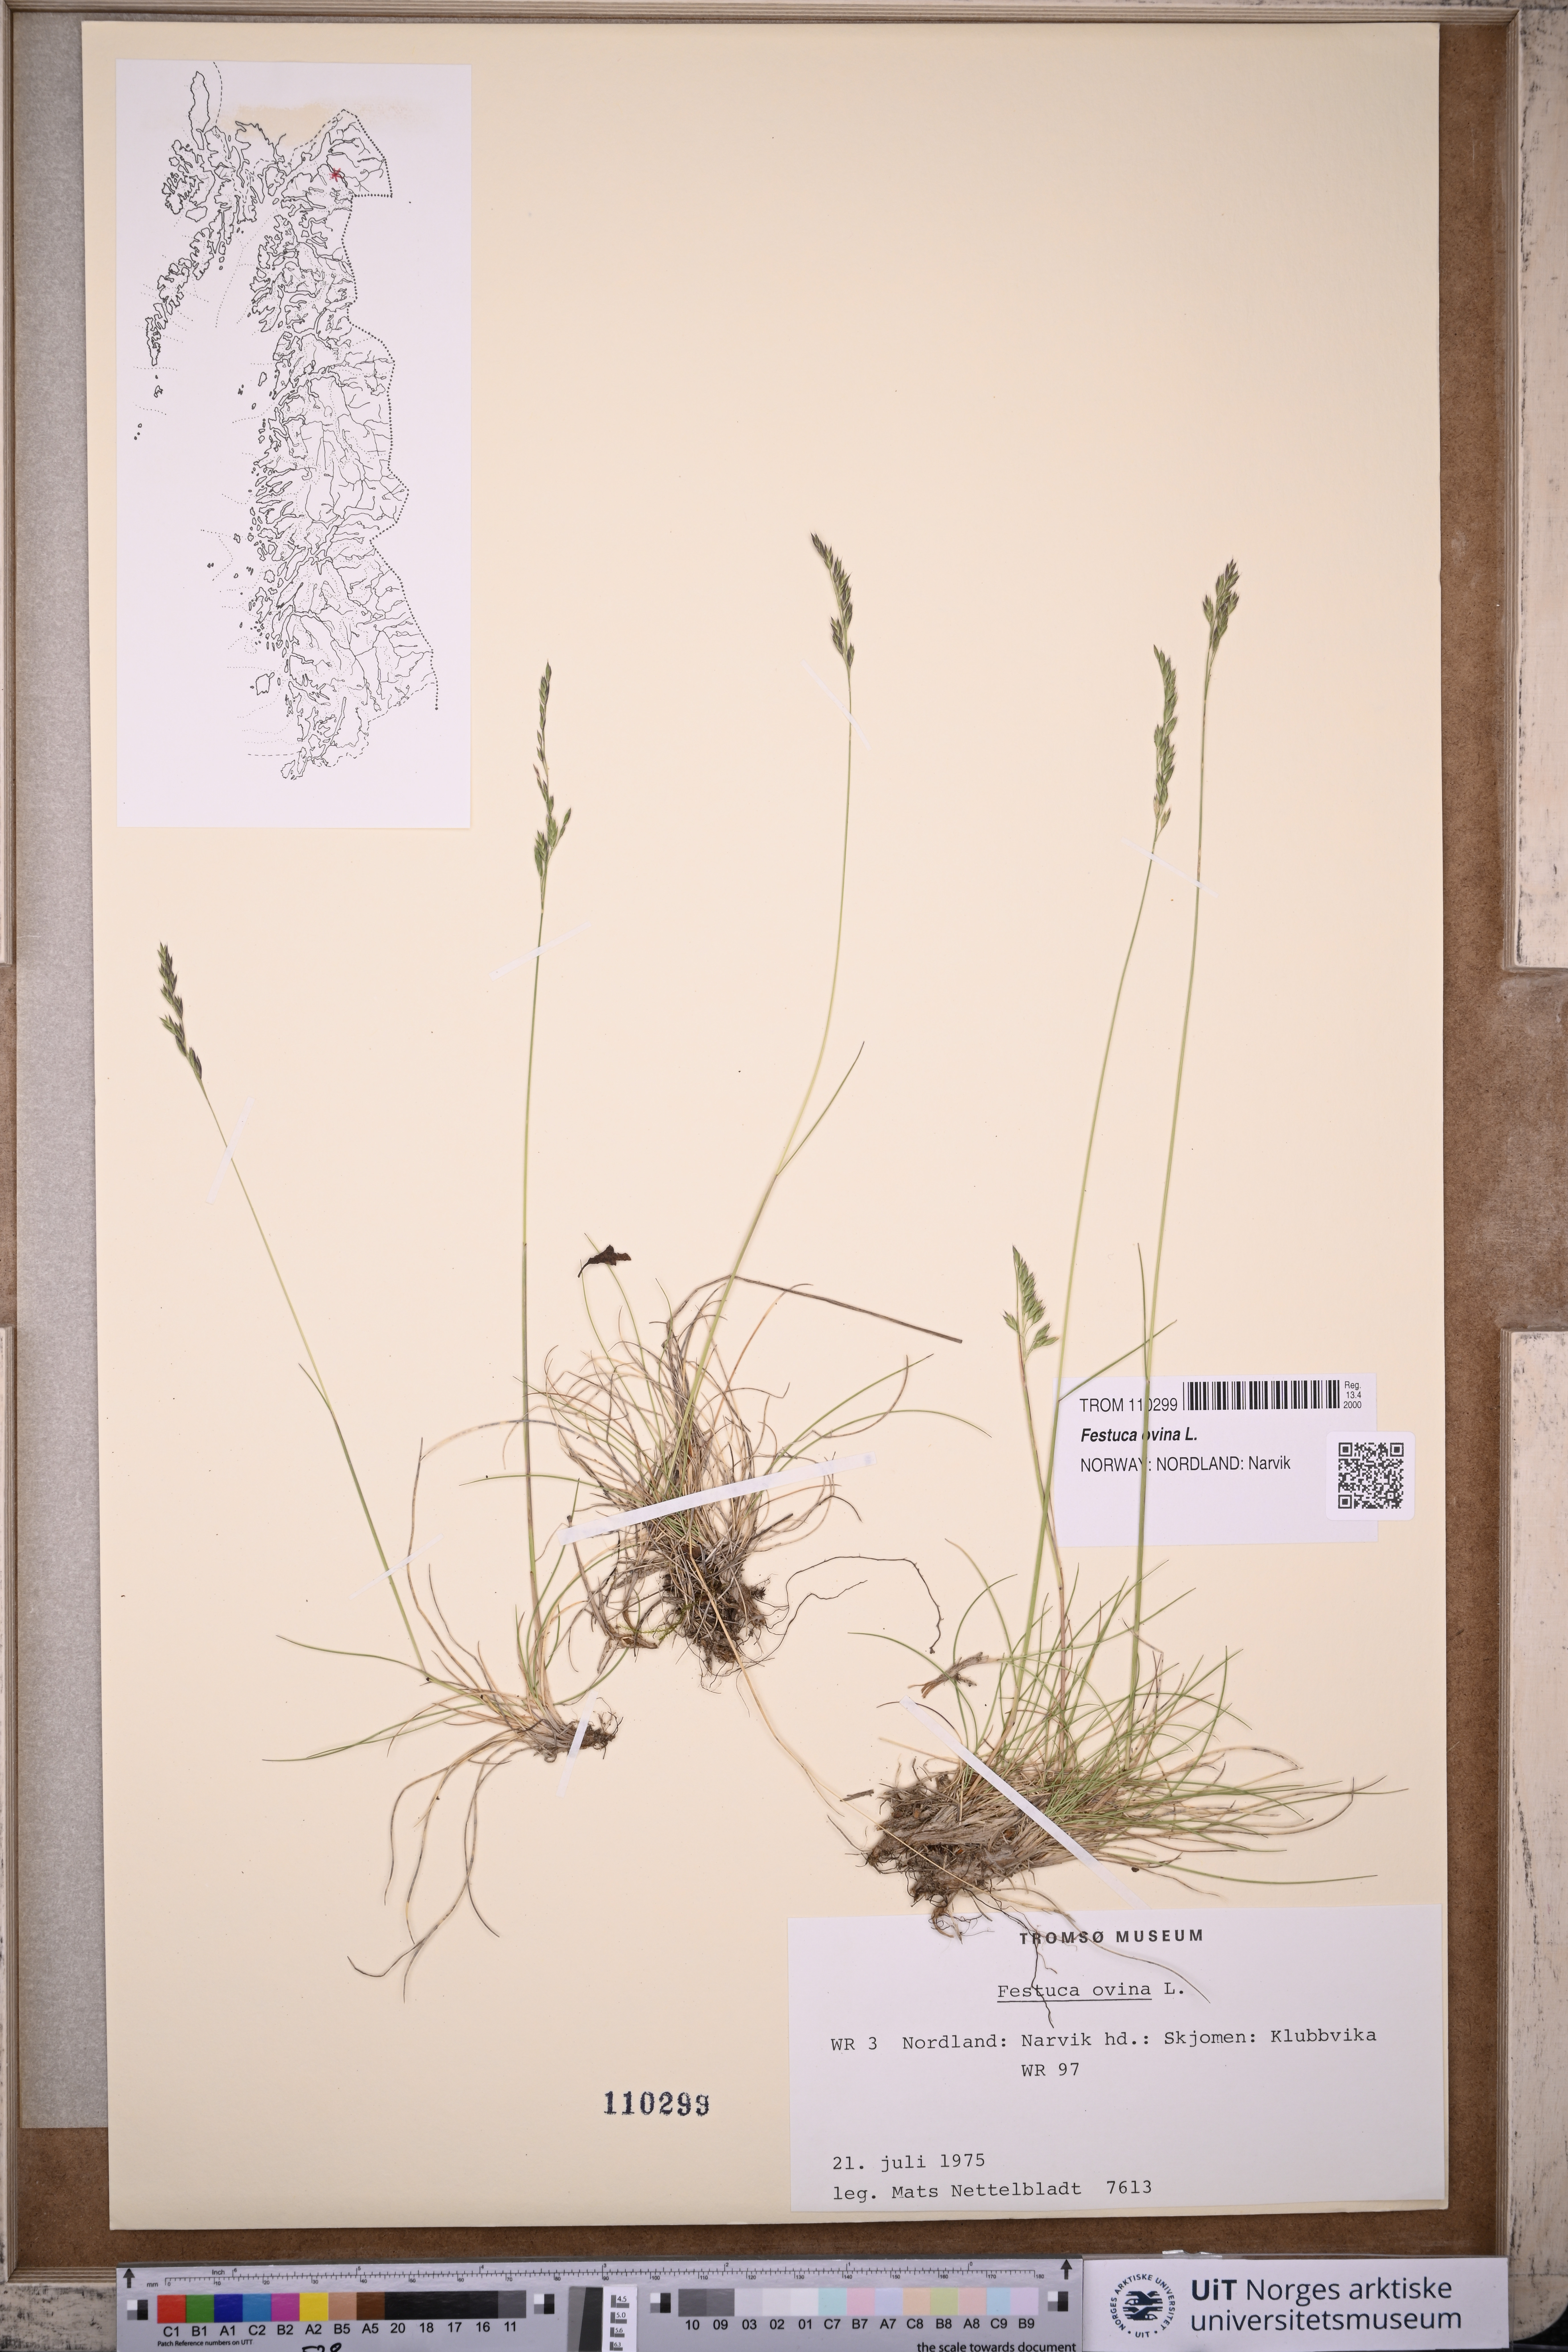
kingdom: Plantae
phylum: Tracheophyta
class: Liliopsida
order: Poales
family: Poaceae
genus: Festuca
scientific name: Festuca ovina
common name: Sheep fescue
